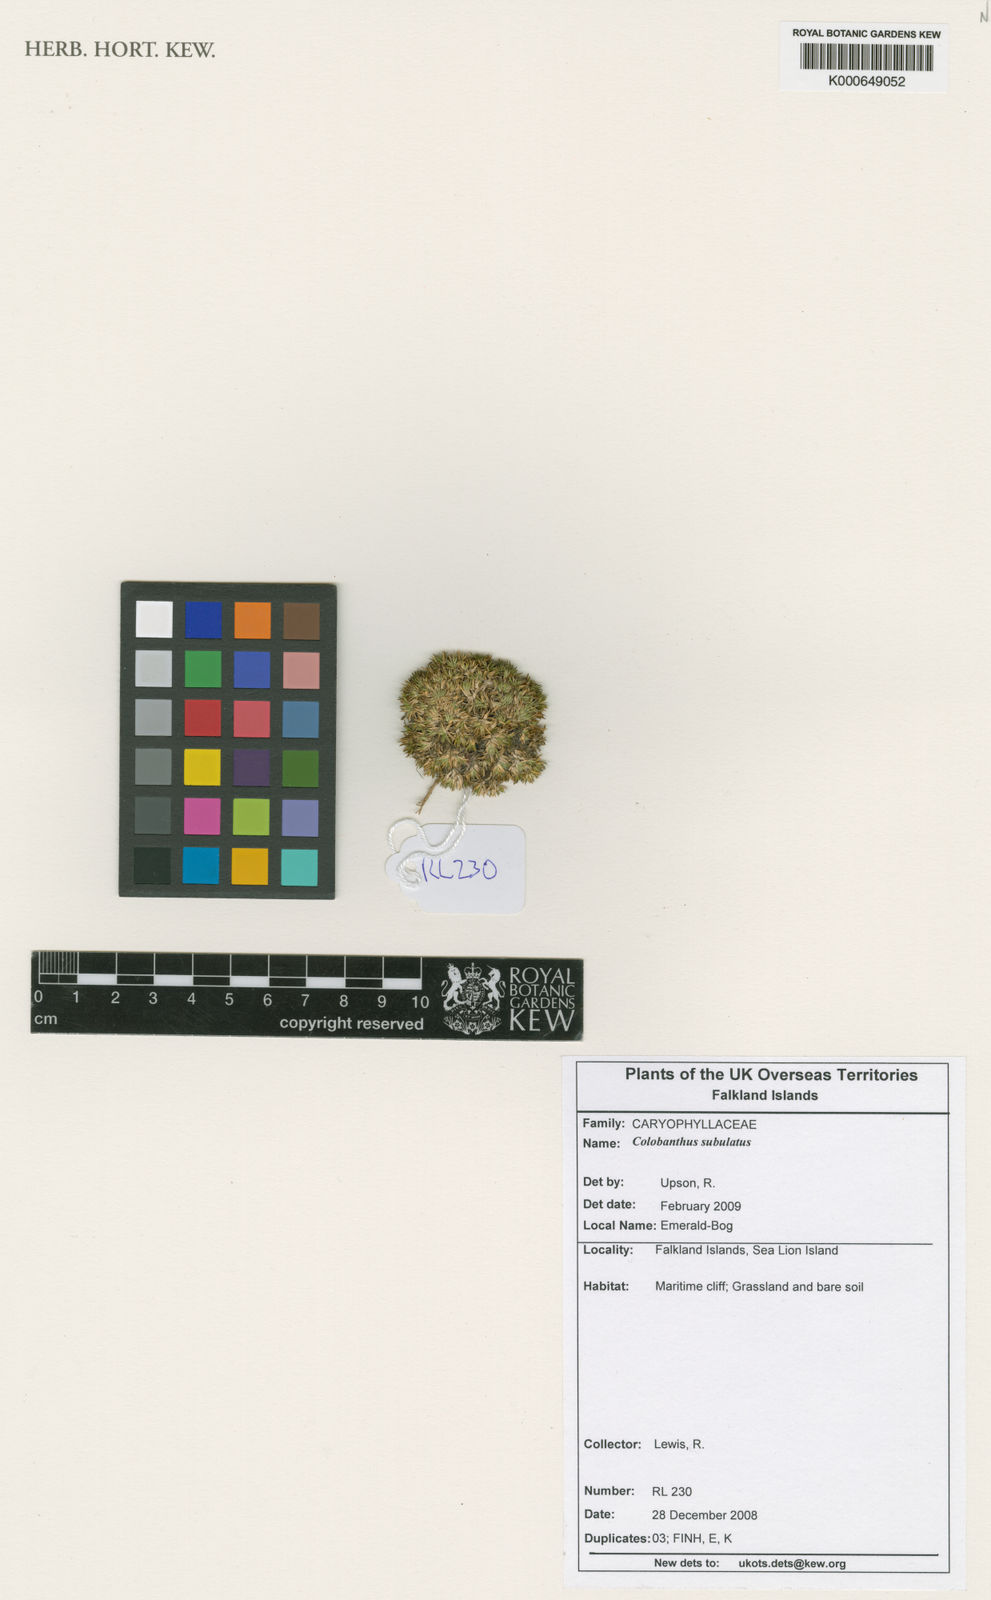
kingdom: Plantae
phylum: Tracheophyta
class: Magnoliopsida
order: Caryophyllales
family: Caryophyllaceae
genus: Colobanthus
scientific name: Colobanthus subulatus
